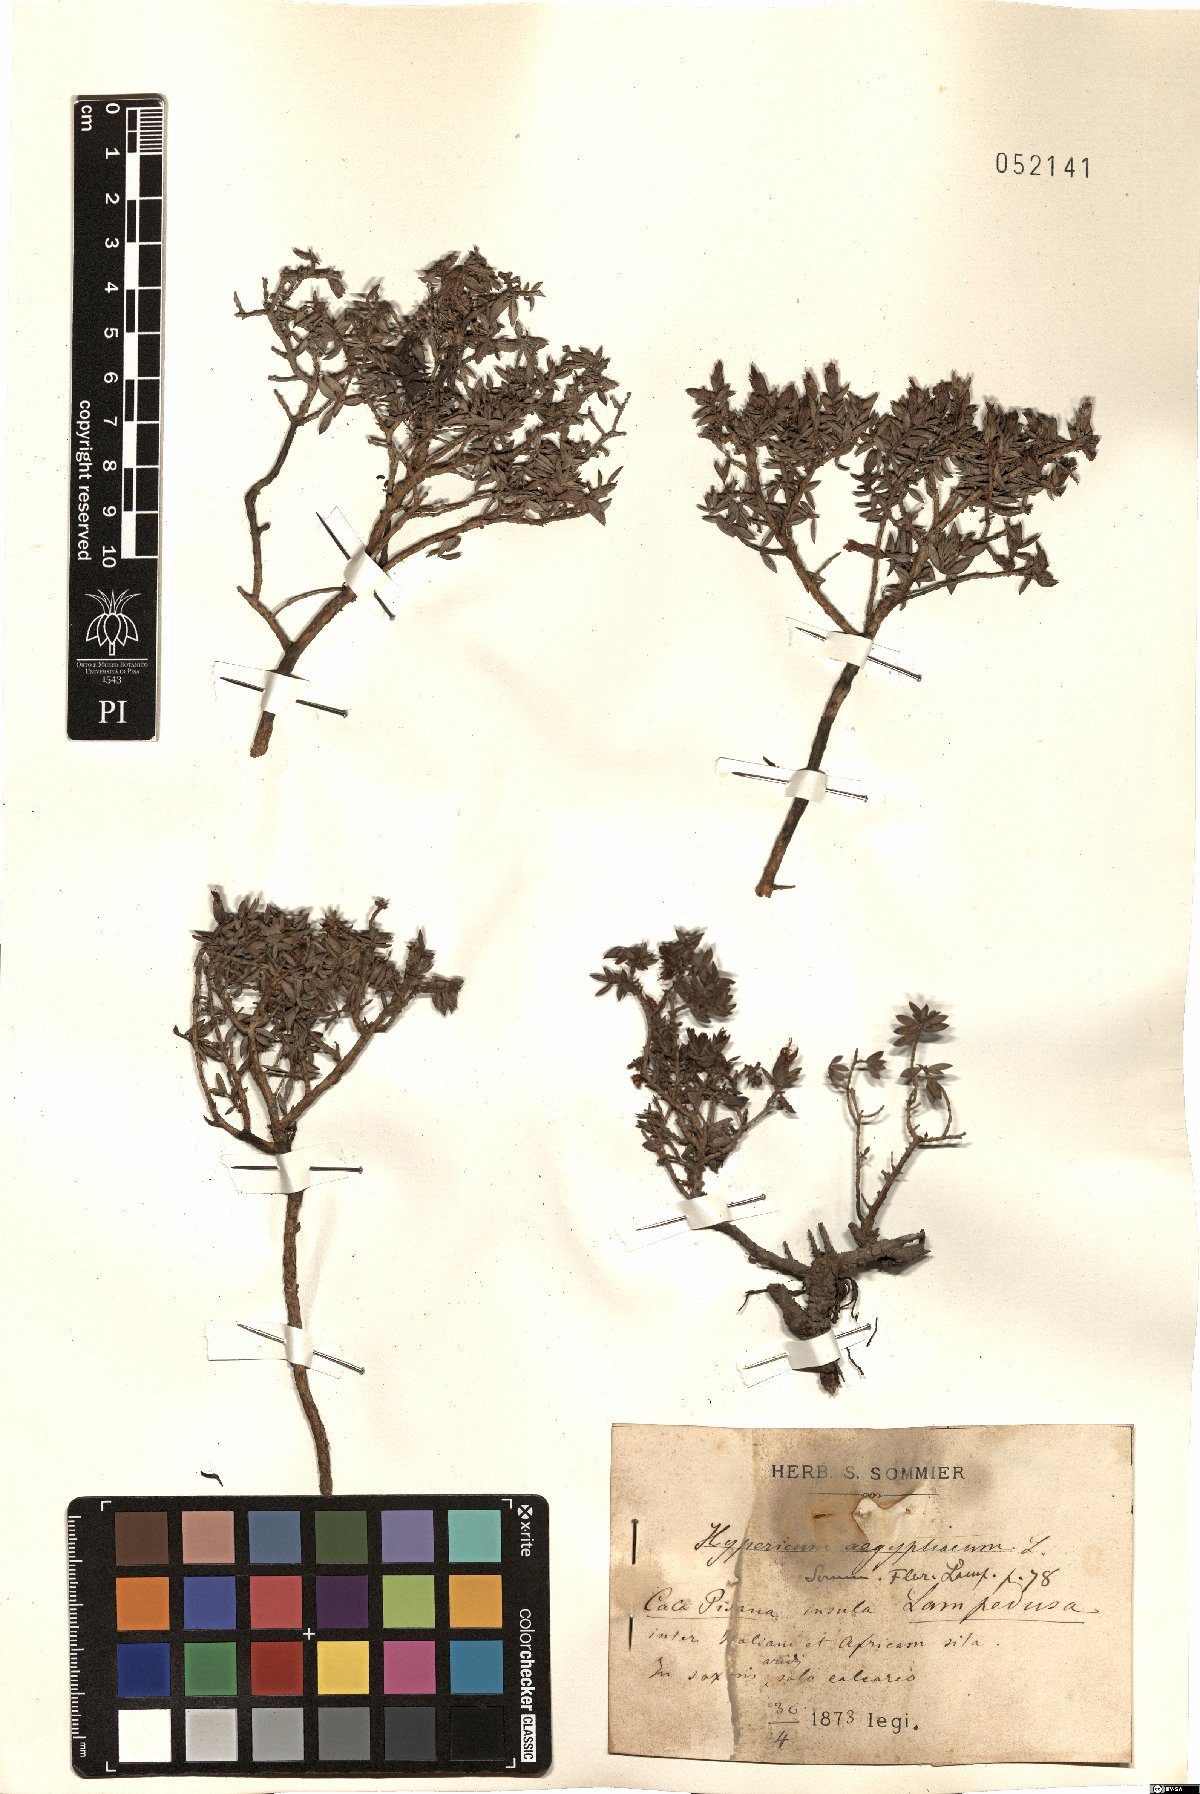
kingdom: Plantae
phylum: Tracheophyta
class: Magnoliopsida
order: Malpighiales
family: Hypericaceae
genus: Hypericum
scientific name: Hypericum aegypticum
